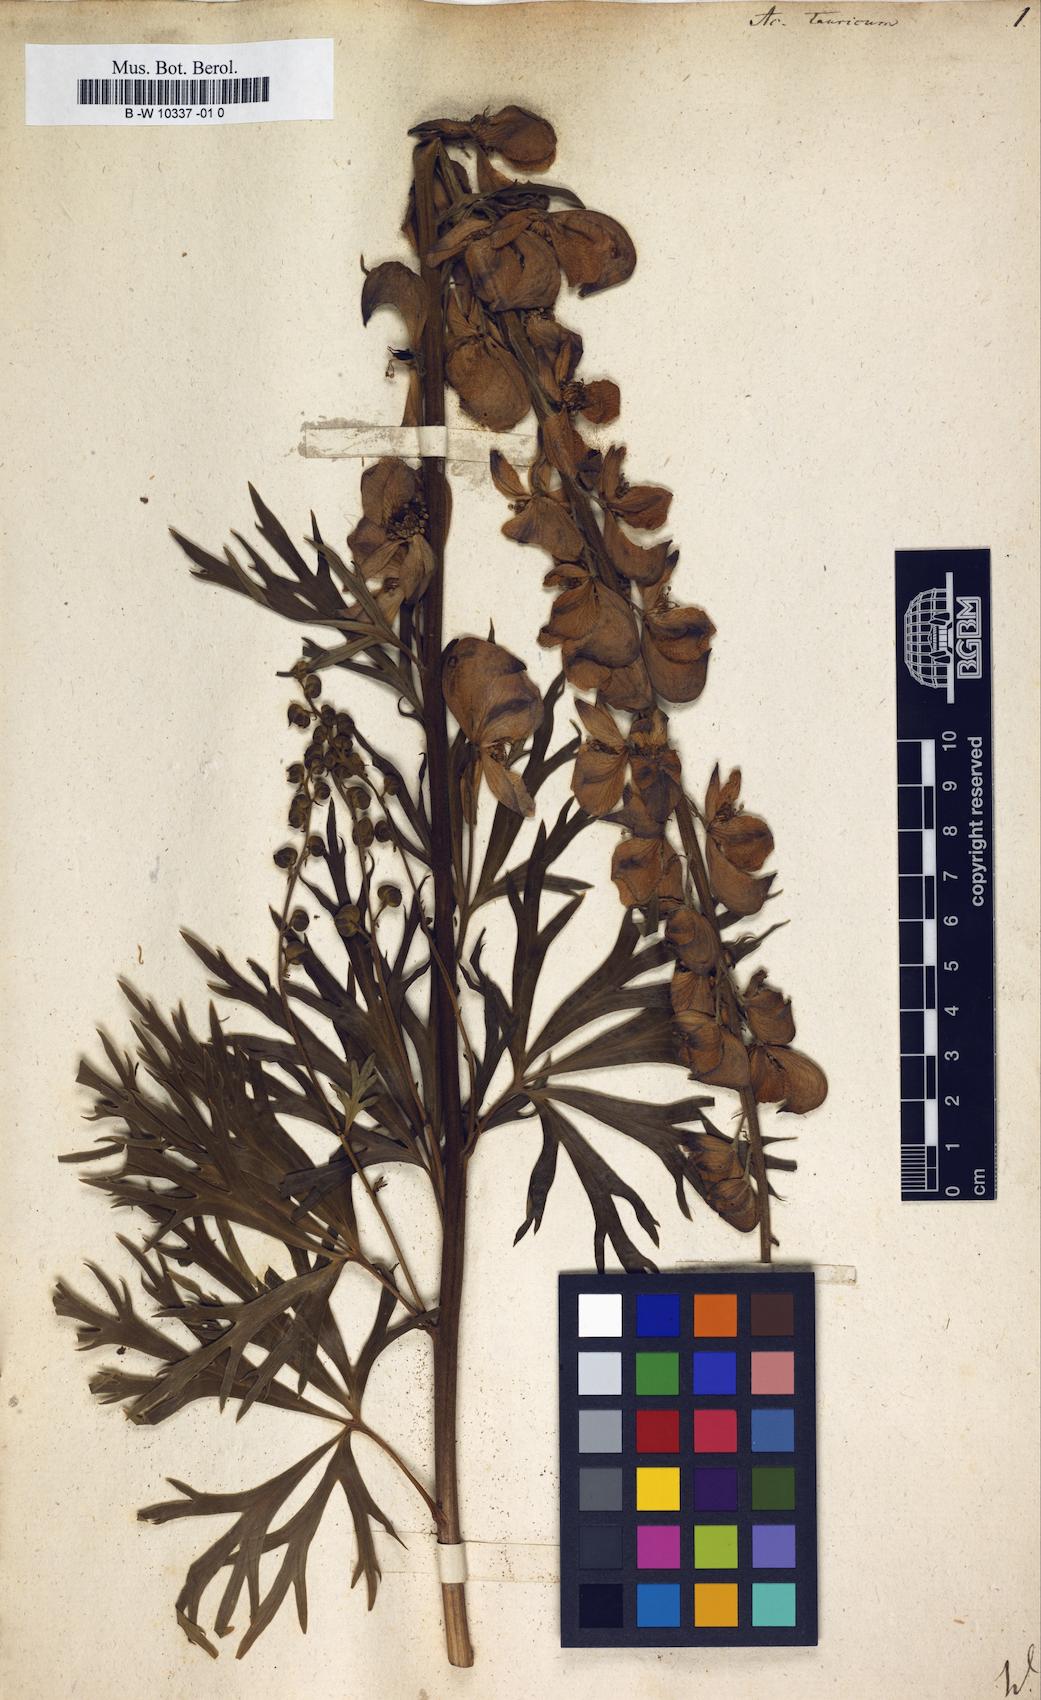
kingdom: Plantae
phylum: Tracheophyta
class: Magnoliopsida
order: Ranunculales
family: Ranunculaceae
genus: Aconitum
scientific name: Aconitum tauricum
